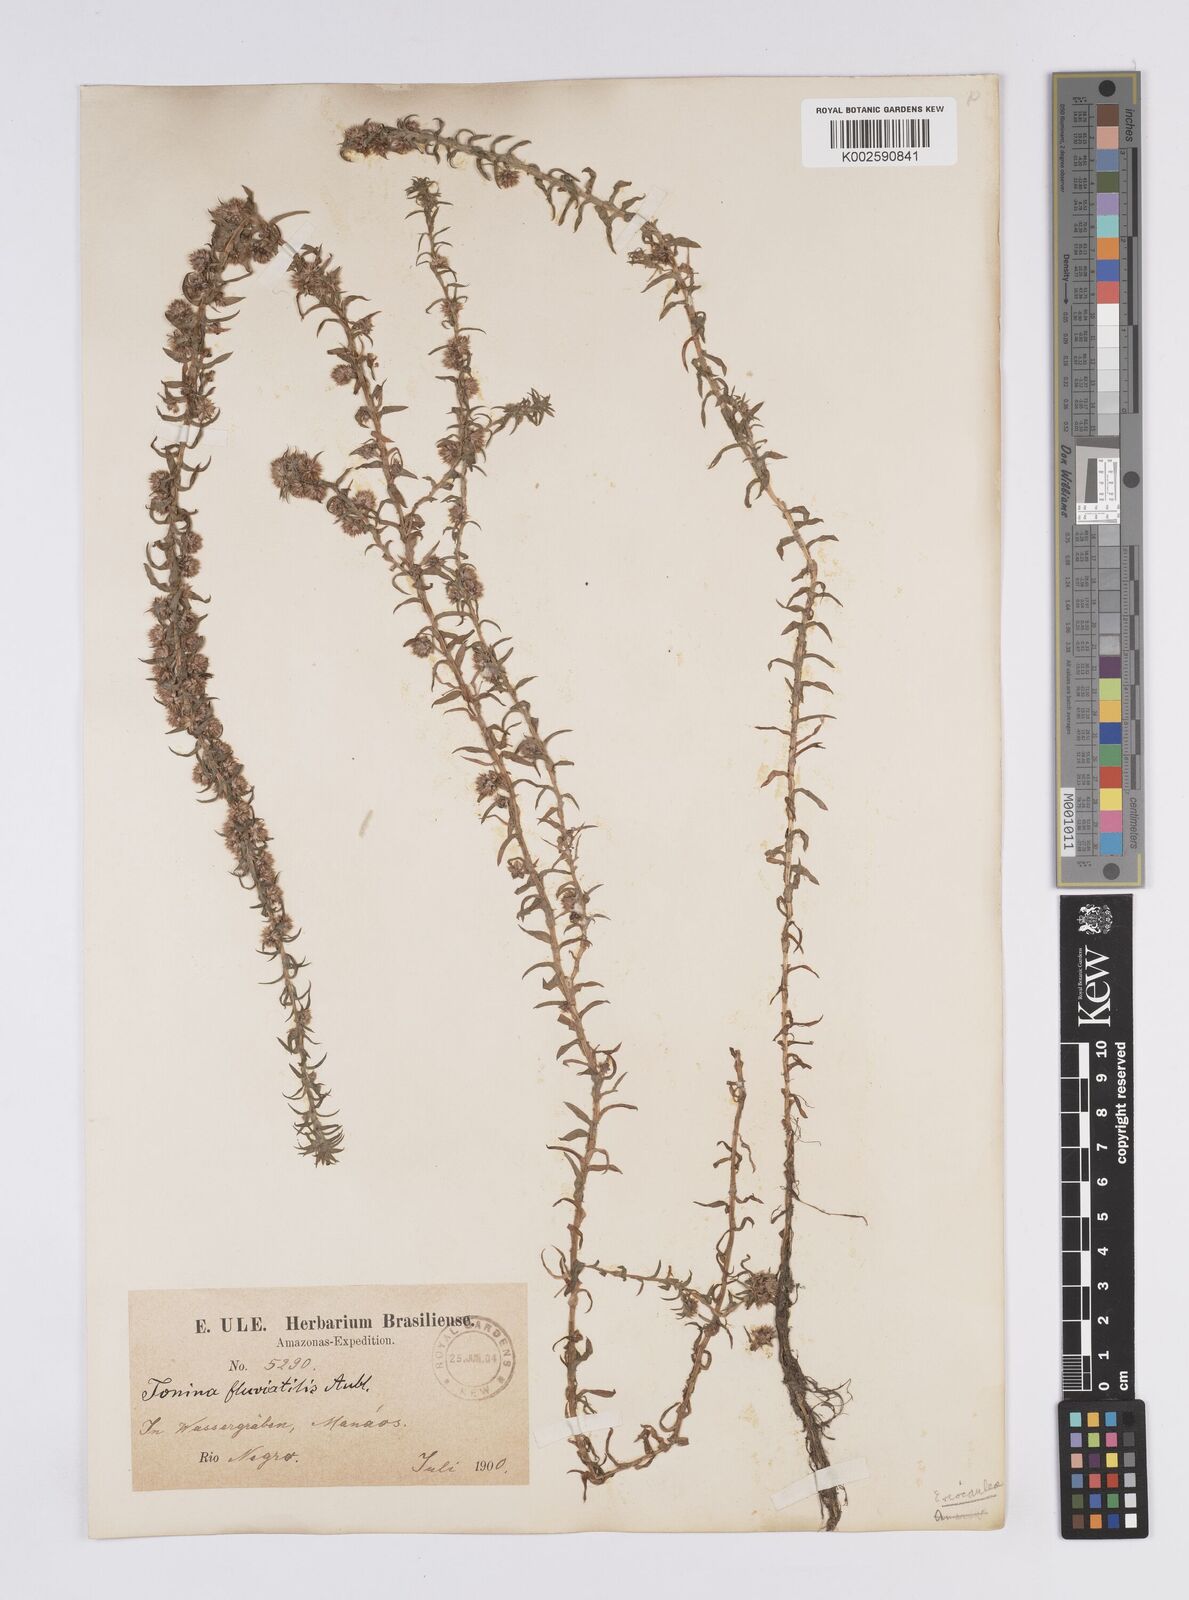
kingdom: Plantae
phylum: Tracheophyta
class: Liliopsida
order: Poales
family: Eriocaulaceae
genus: Paepalanthus
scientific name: Paepalanthus fluviatilis
